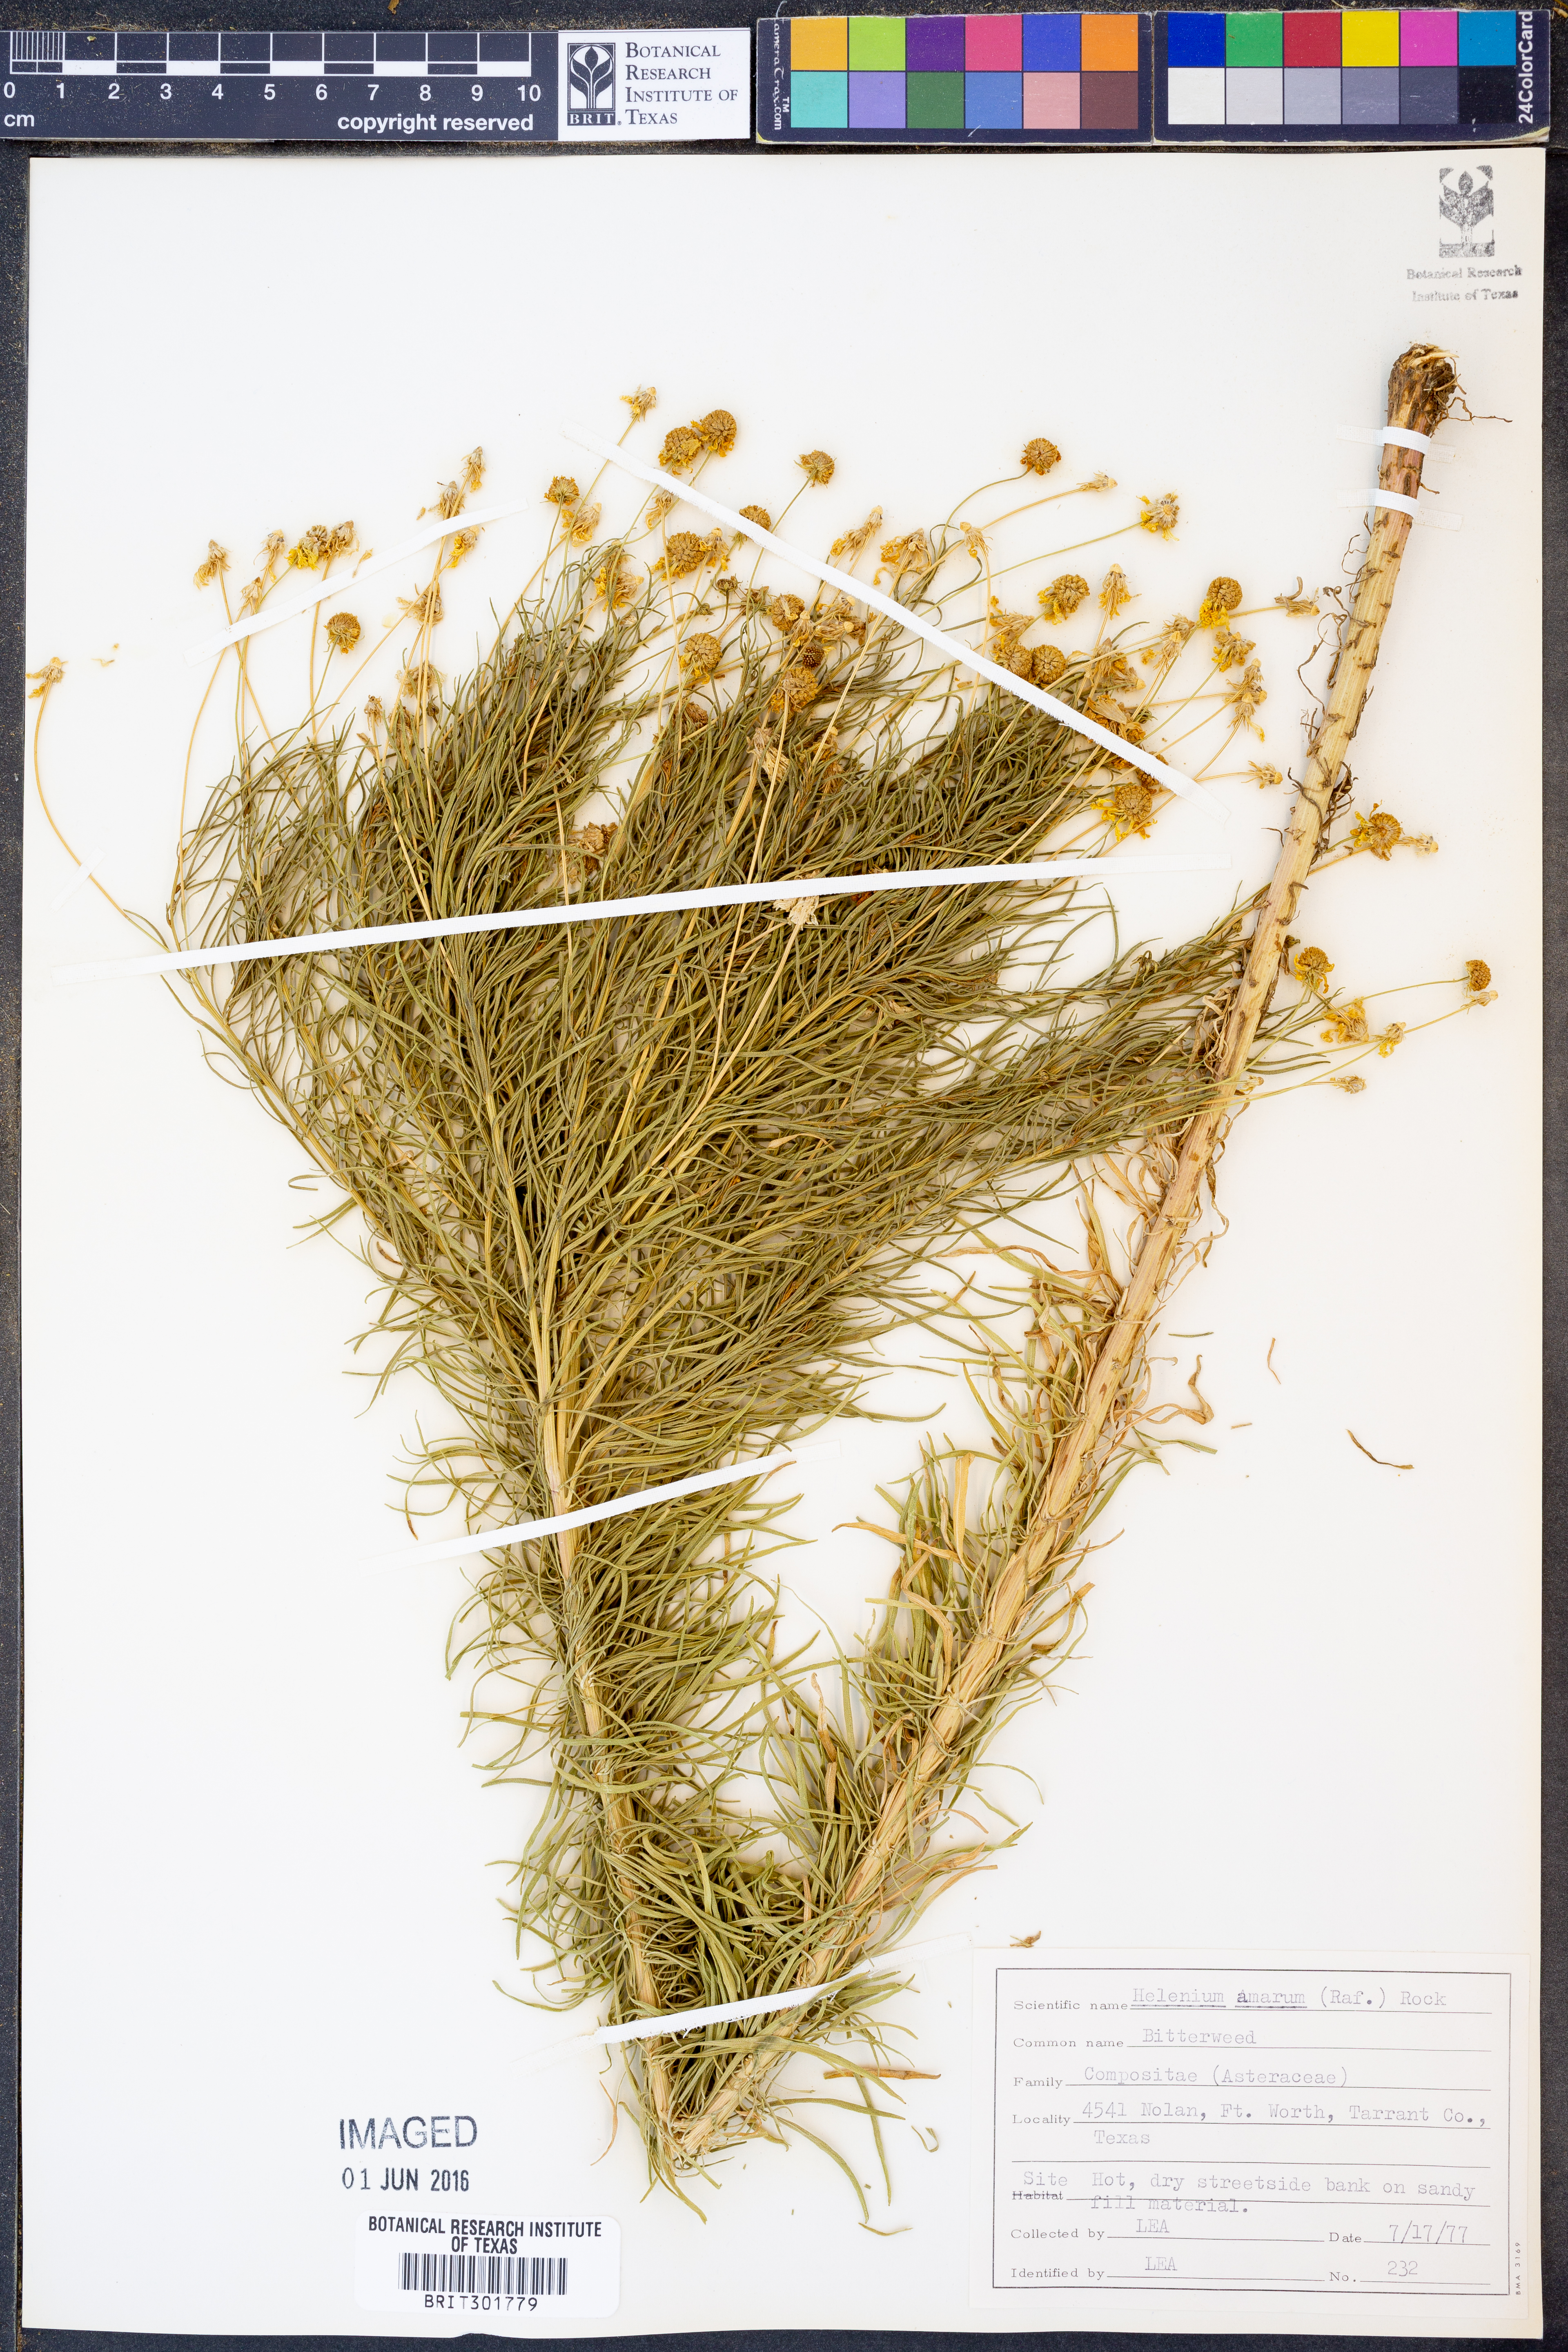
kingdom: Plantae
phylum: Tracheophyta
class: Magnoliopsida
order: Asterales
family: Asteraceae
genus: Helenium
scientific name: Helenium amarum
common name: Bitter sneezeweed
